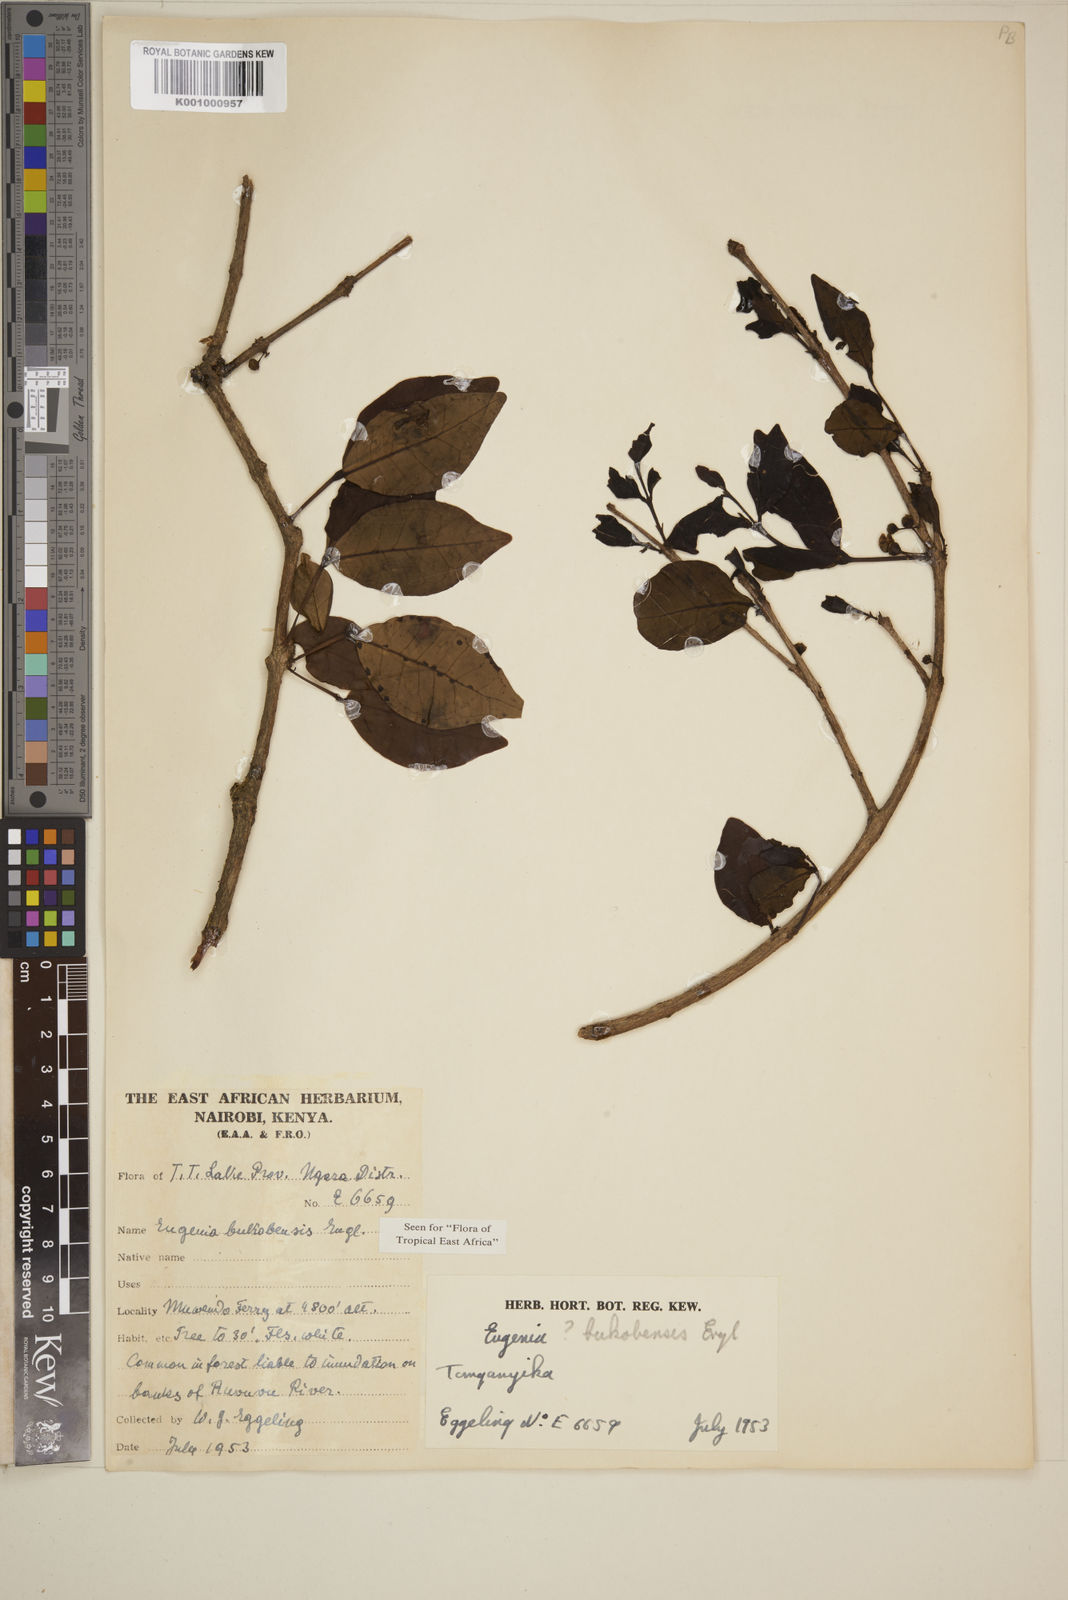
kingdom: Plantae
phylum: Tracheophyta
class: Magnoliopsida
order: Myrtales
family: Myrtaceae
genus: Eugenia
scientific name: Eugenia bukobensis
